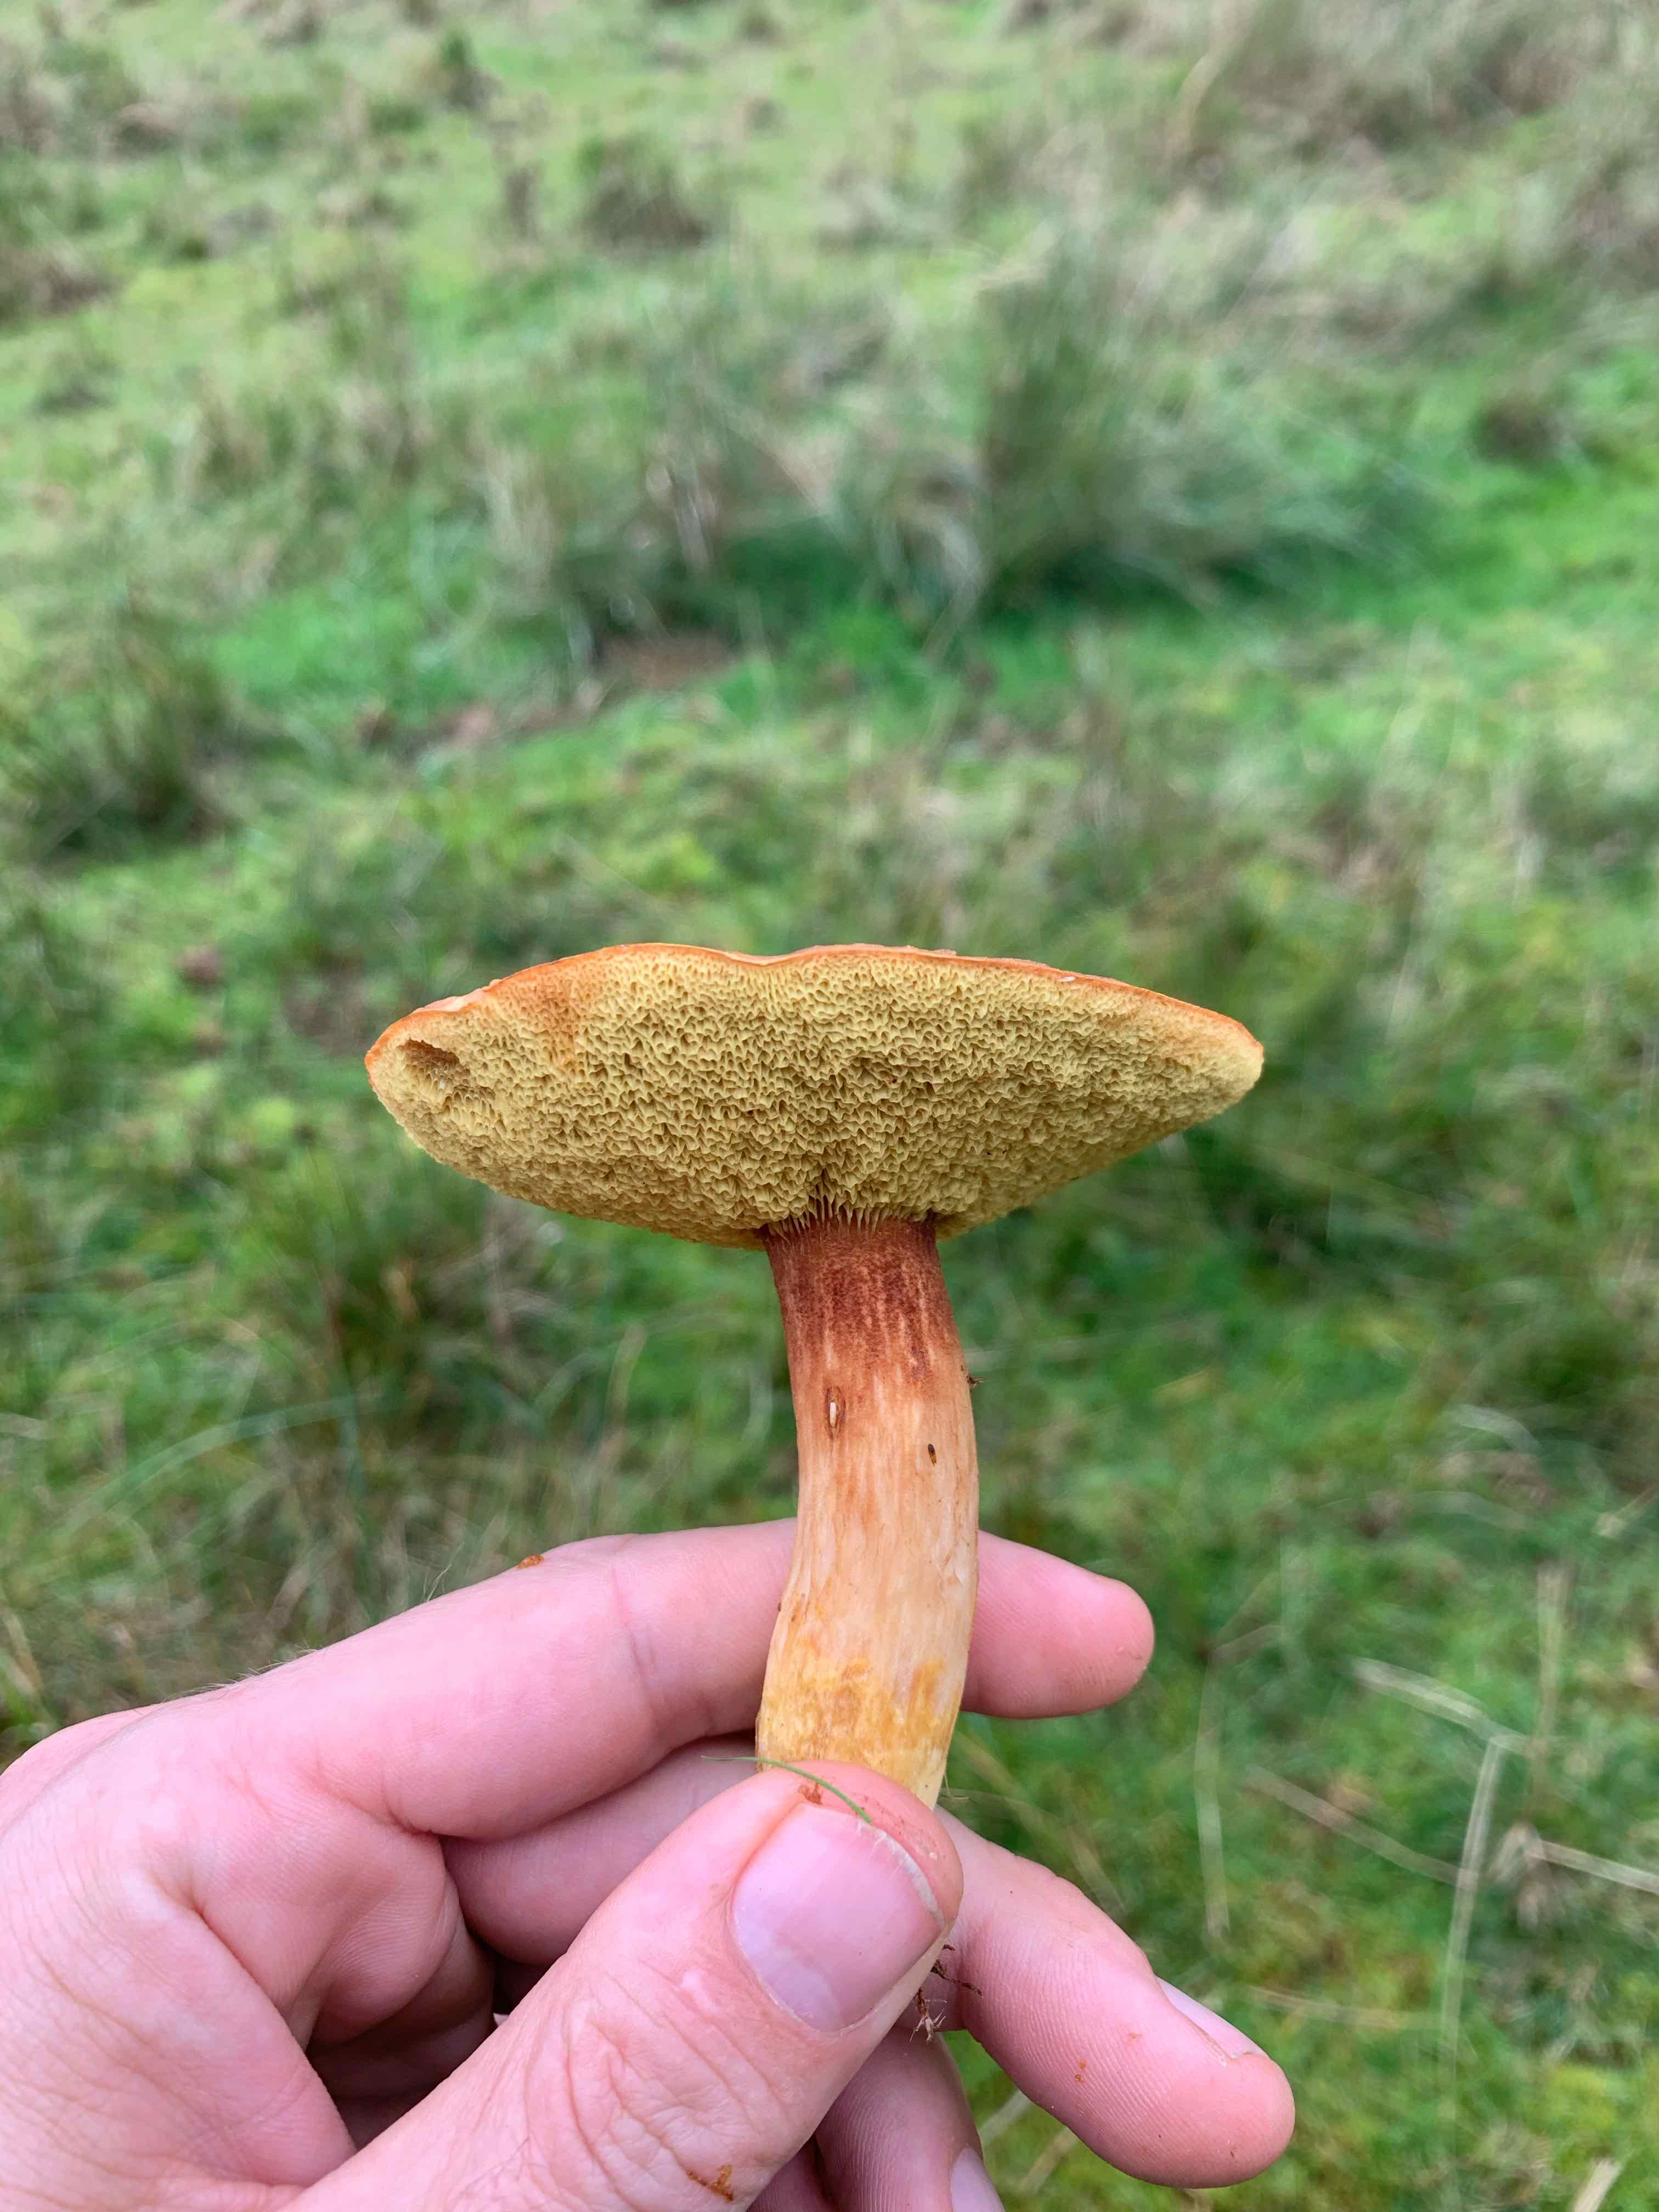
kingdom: Fungi
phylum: Basidiomycota
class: Agaricomycetes
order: Boletales
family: Boletaceae
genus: Xerocomus
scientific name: Xerocomus ferrugineus
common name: vaskeskinds-rørhat
